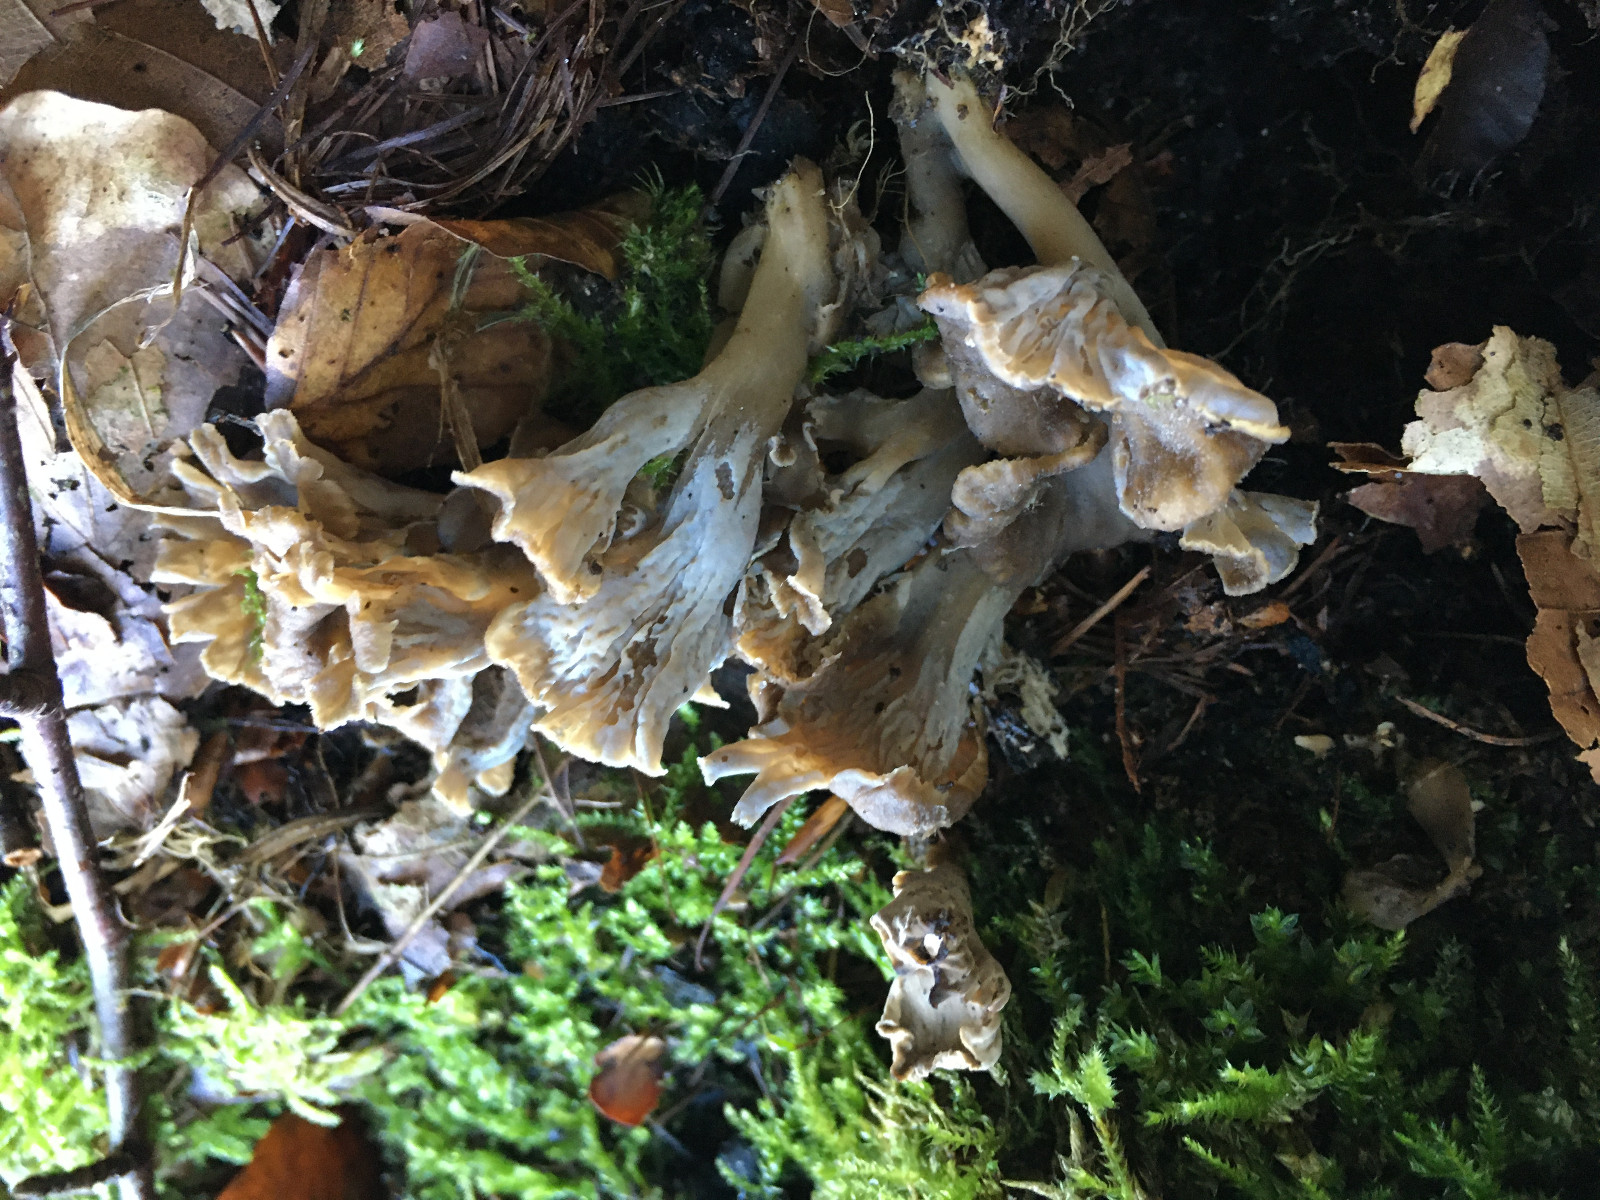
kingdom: Fungi
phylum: Basidiomycota
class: Agaricomycetes
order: Cantharellales
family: Hydnaceae
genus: Craterellus
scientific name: Craterellus undulatus
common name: liden kantarel
